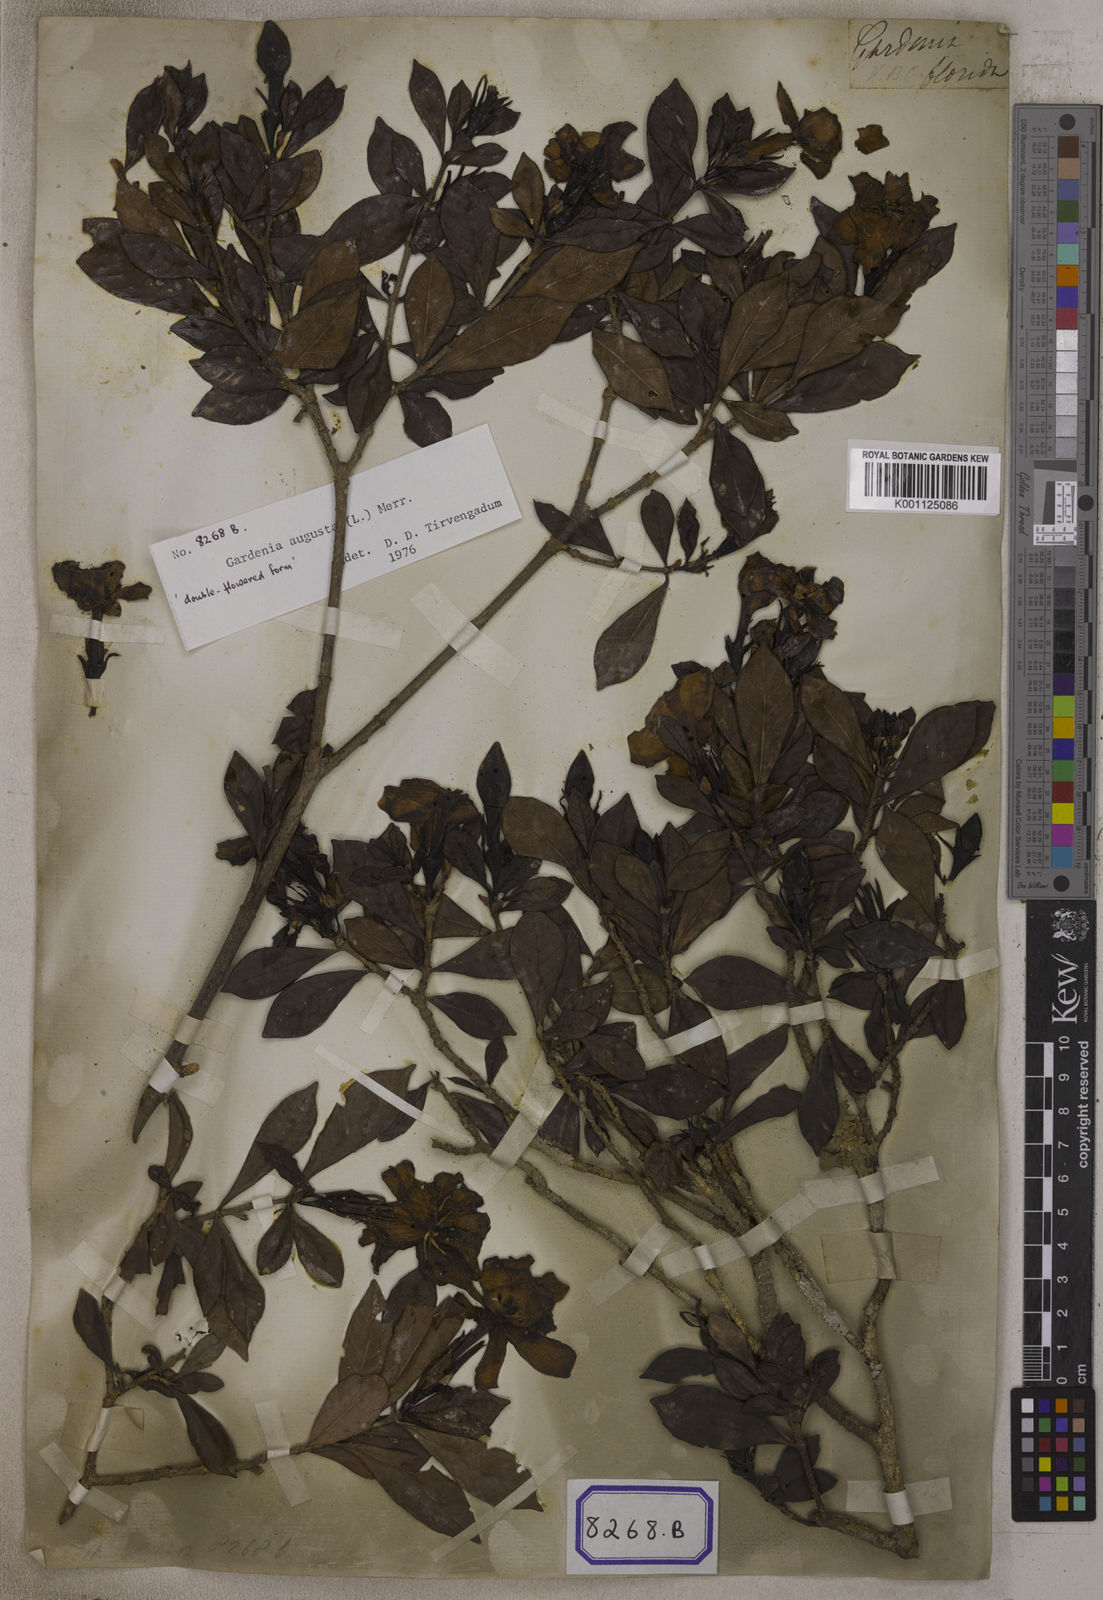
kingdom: Plantae
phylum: Tracheophyta
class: Magnoliopsida
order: Gentianales
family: Rubiaceae
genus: Gardenia
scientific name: Gardenia jasminoides
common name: Cape-jasmine
